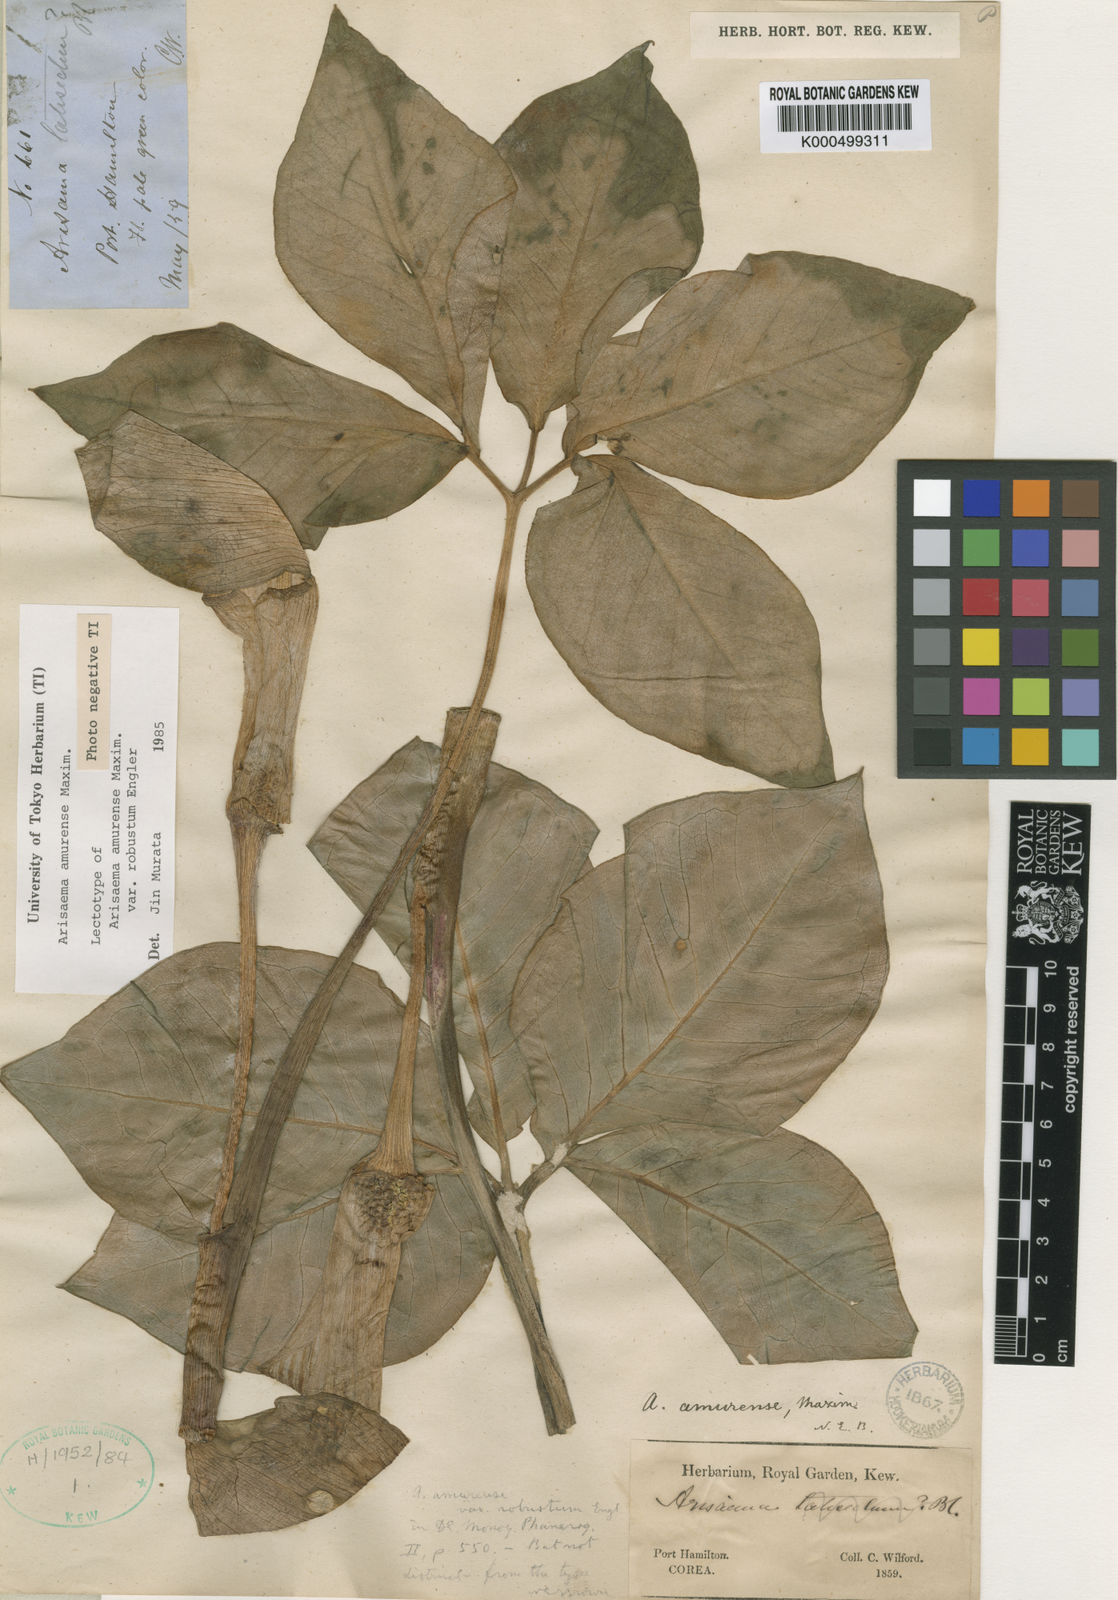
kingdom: Plantae
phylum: Tracheophyta
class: Liliopsida
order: Alismatales
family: Araceae
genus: Arisaema
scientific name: Arisaema amurense
